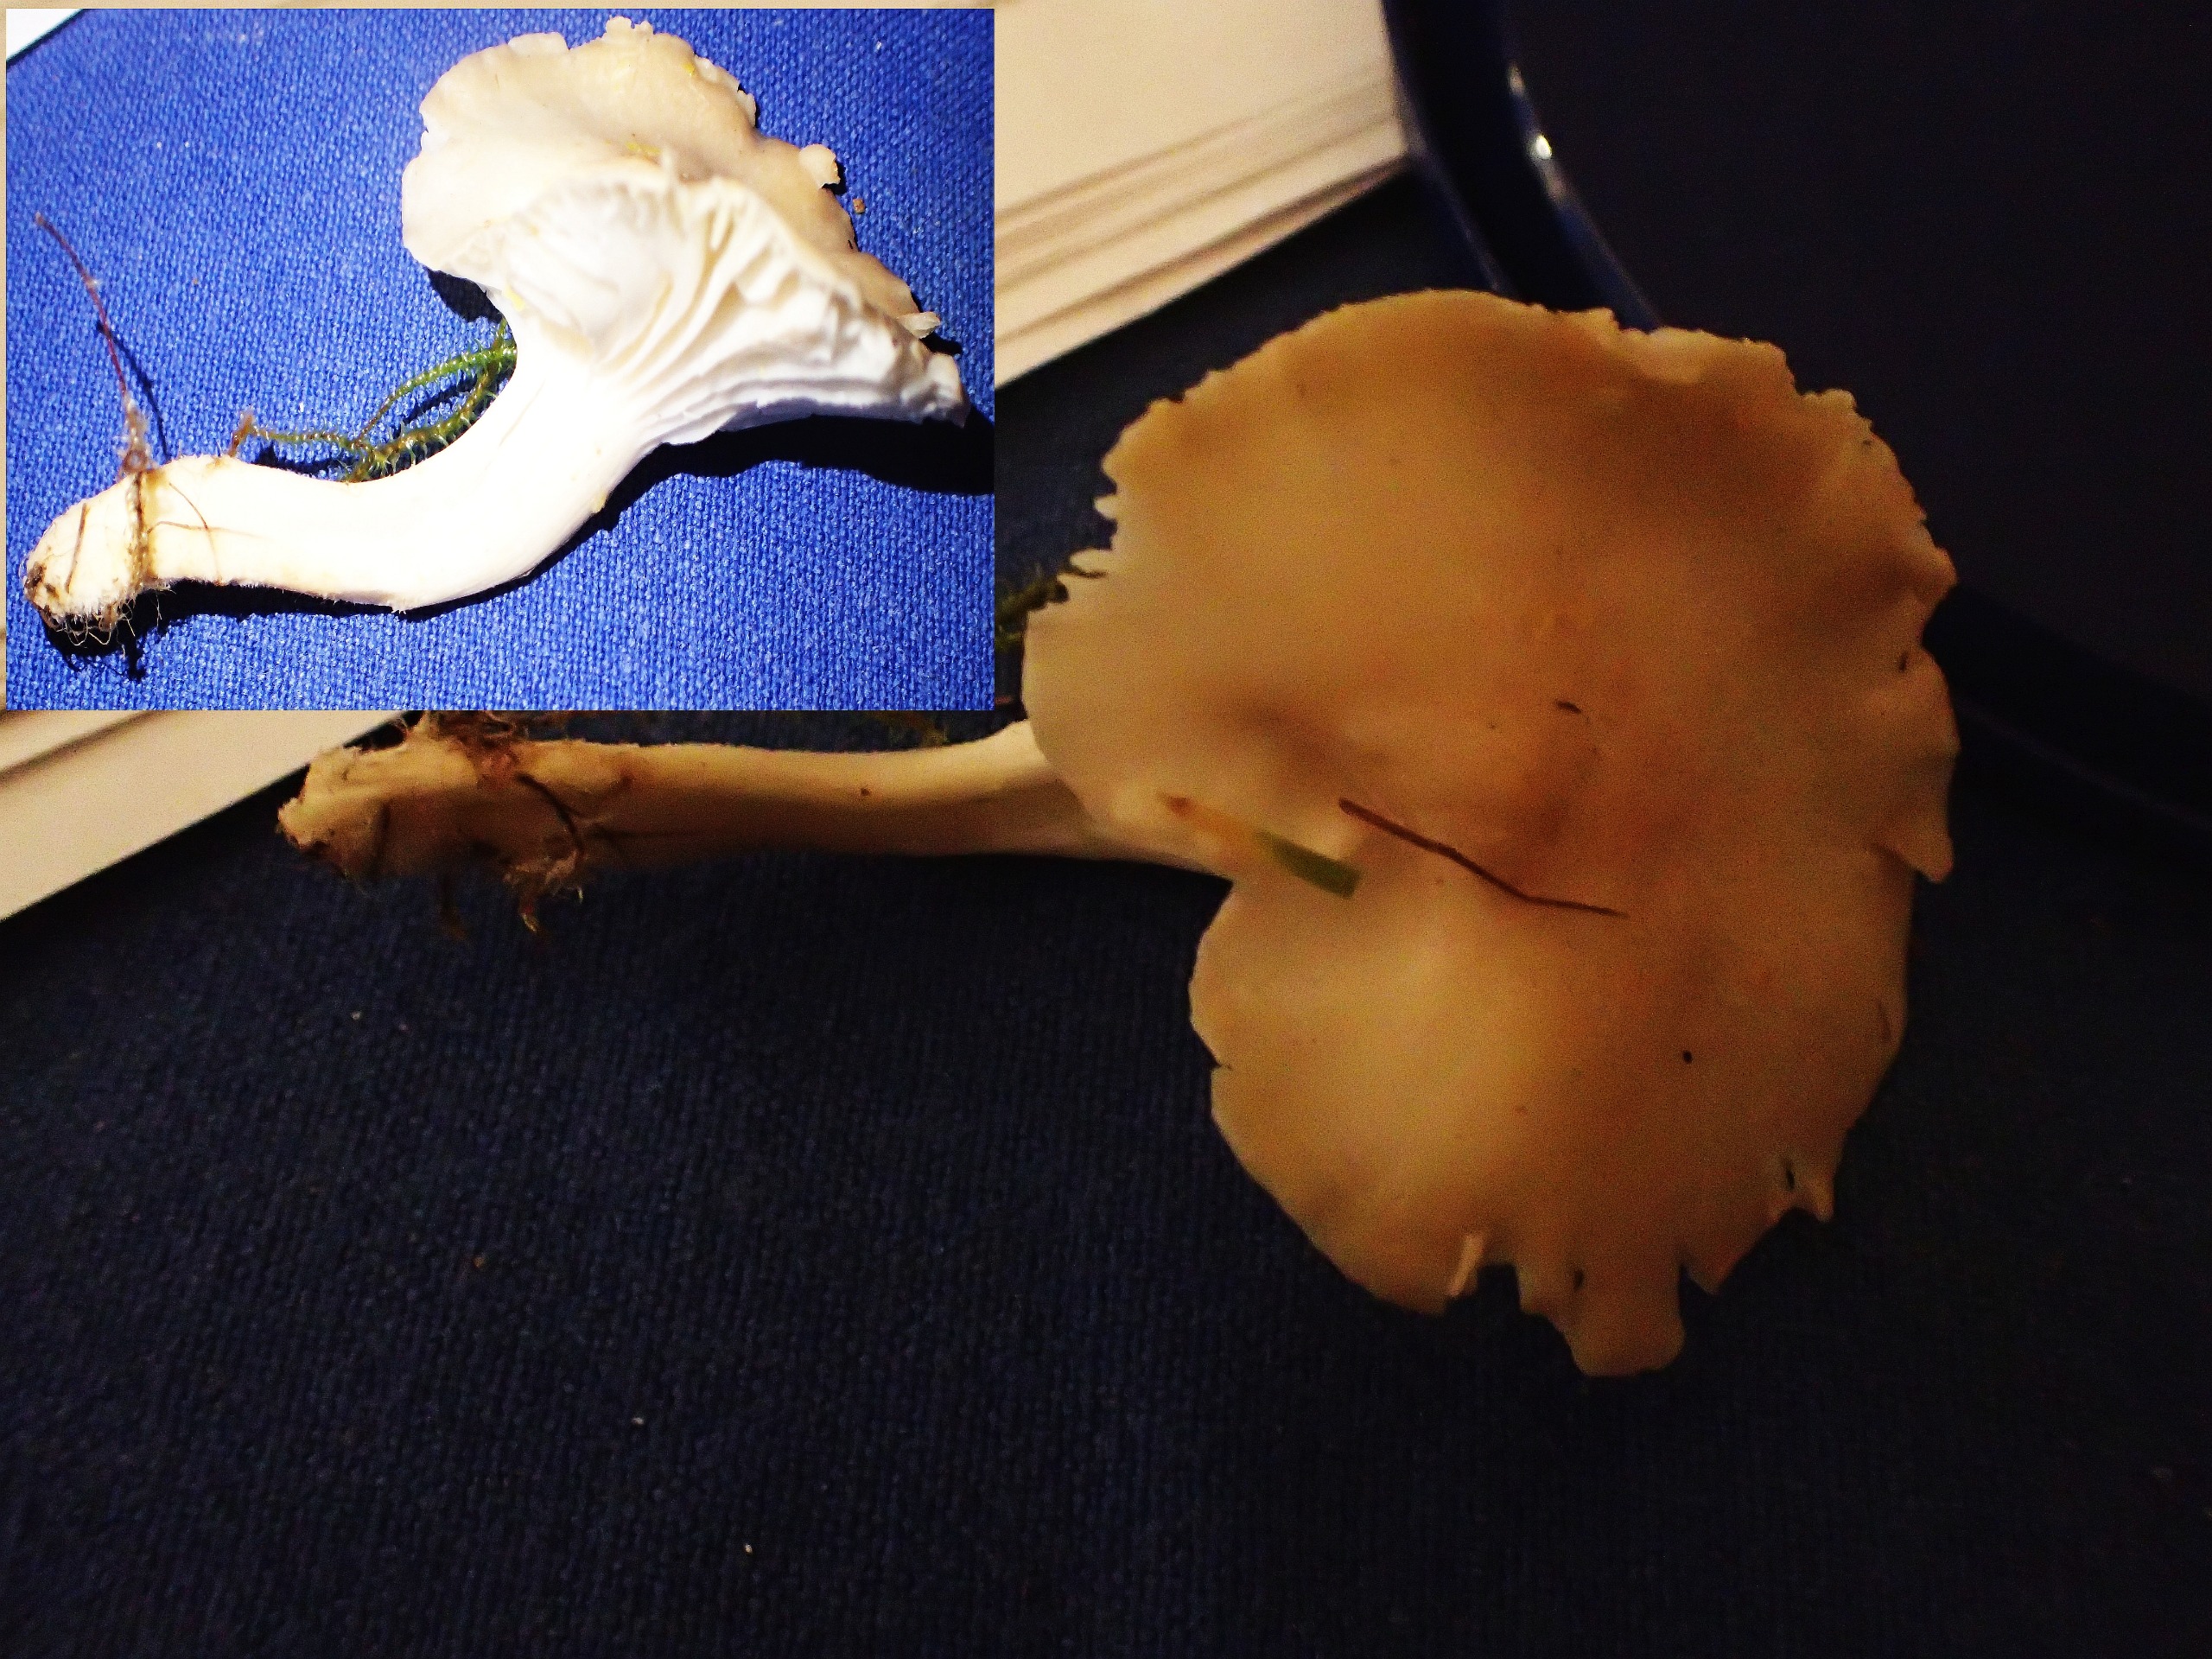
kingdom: Fungi
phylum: Basidiomycota
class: Agaricomycetes
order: Agaricales
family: Hygrophoraceae
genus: Cuphophyllus
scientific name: Cuphophyllus pratensis
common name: Eng-vokshat
